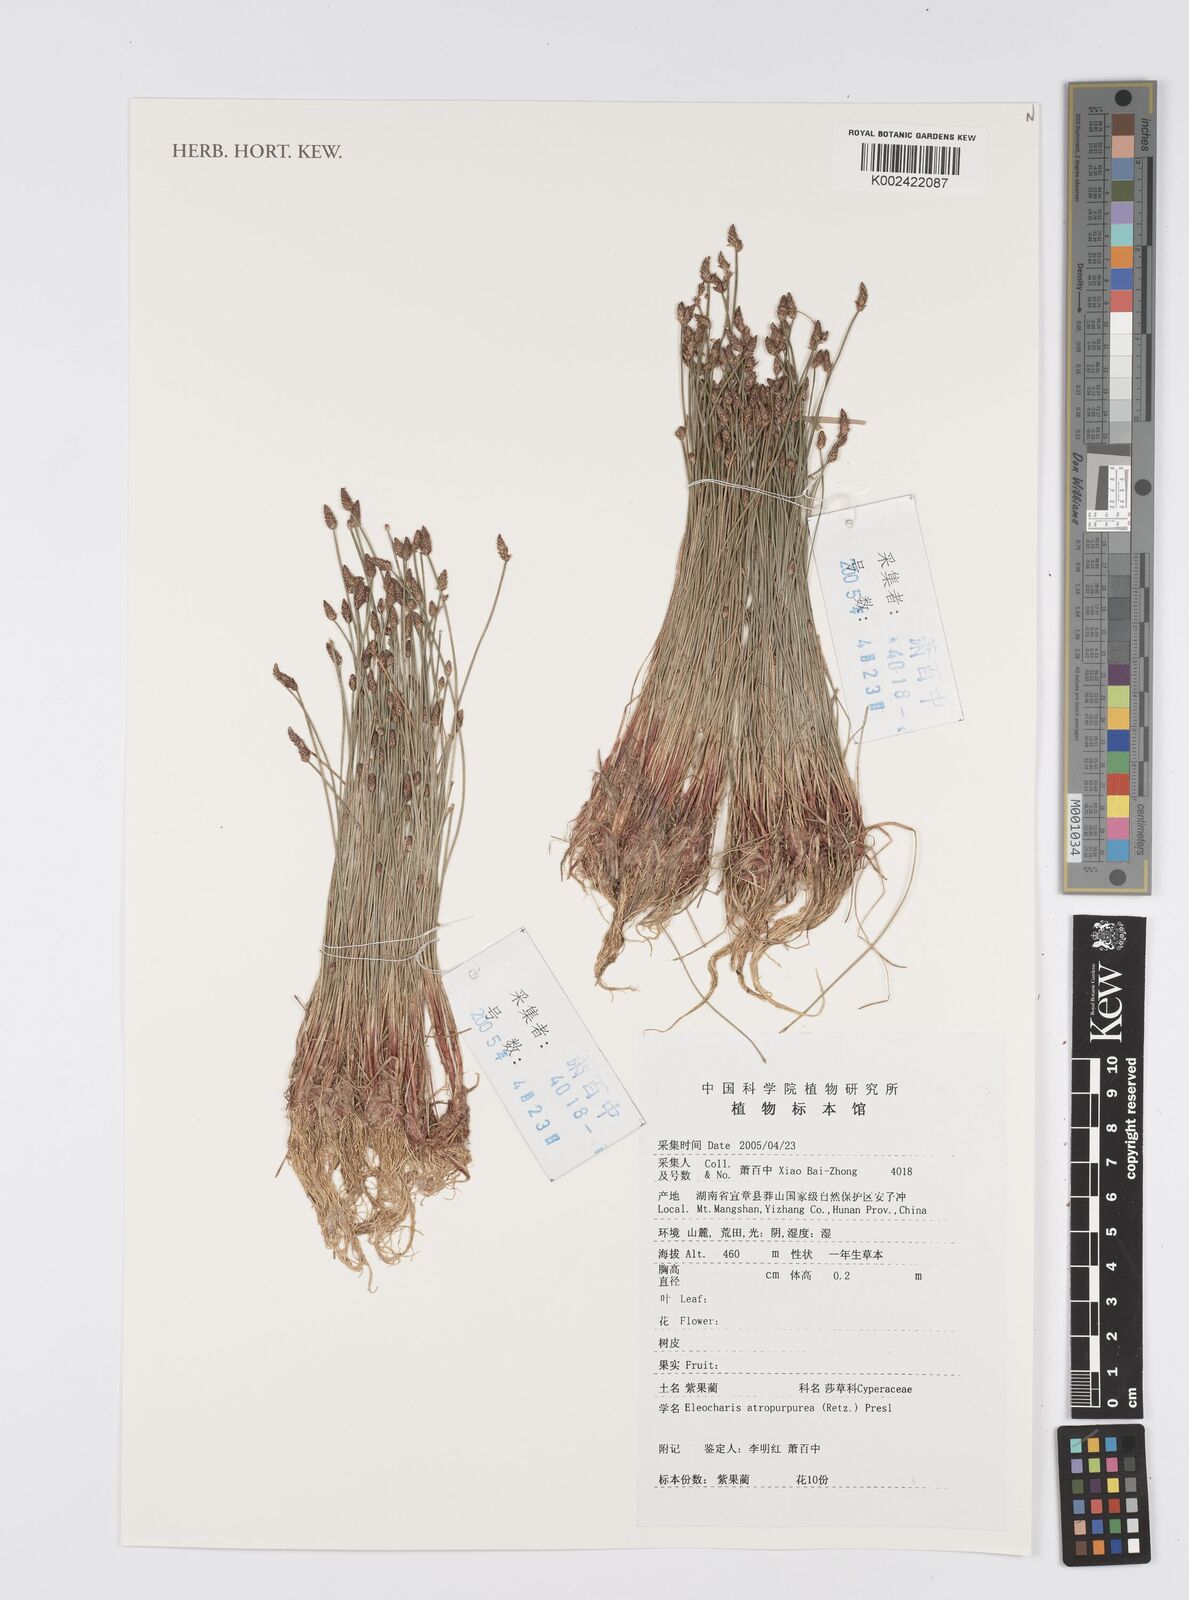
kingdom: Plantae
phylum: Tracheophyta
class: Liliopsida
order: Poales
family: Cyperaceae
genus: Eleocharis
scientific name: Eleocharis atropurpurea
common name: Purple spikerush
